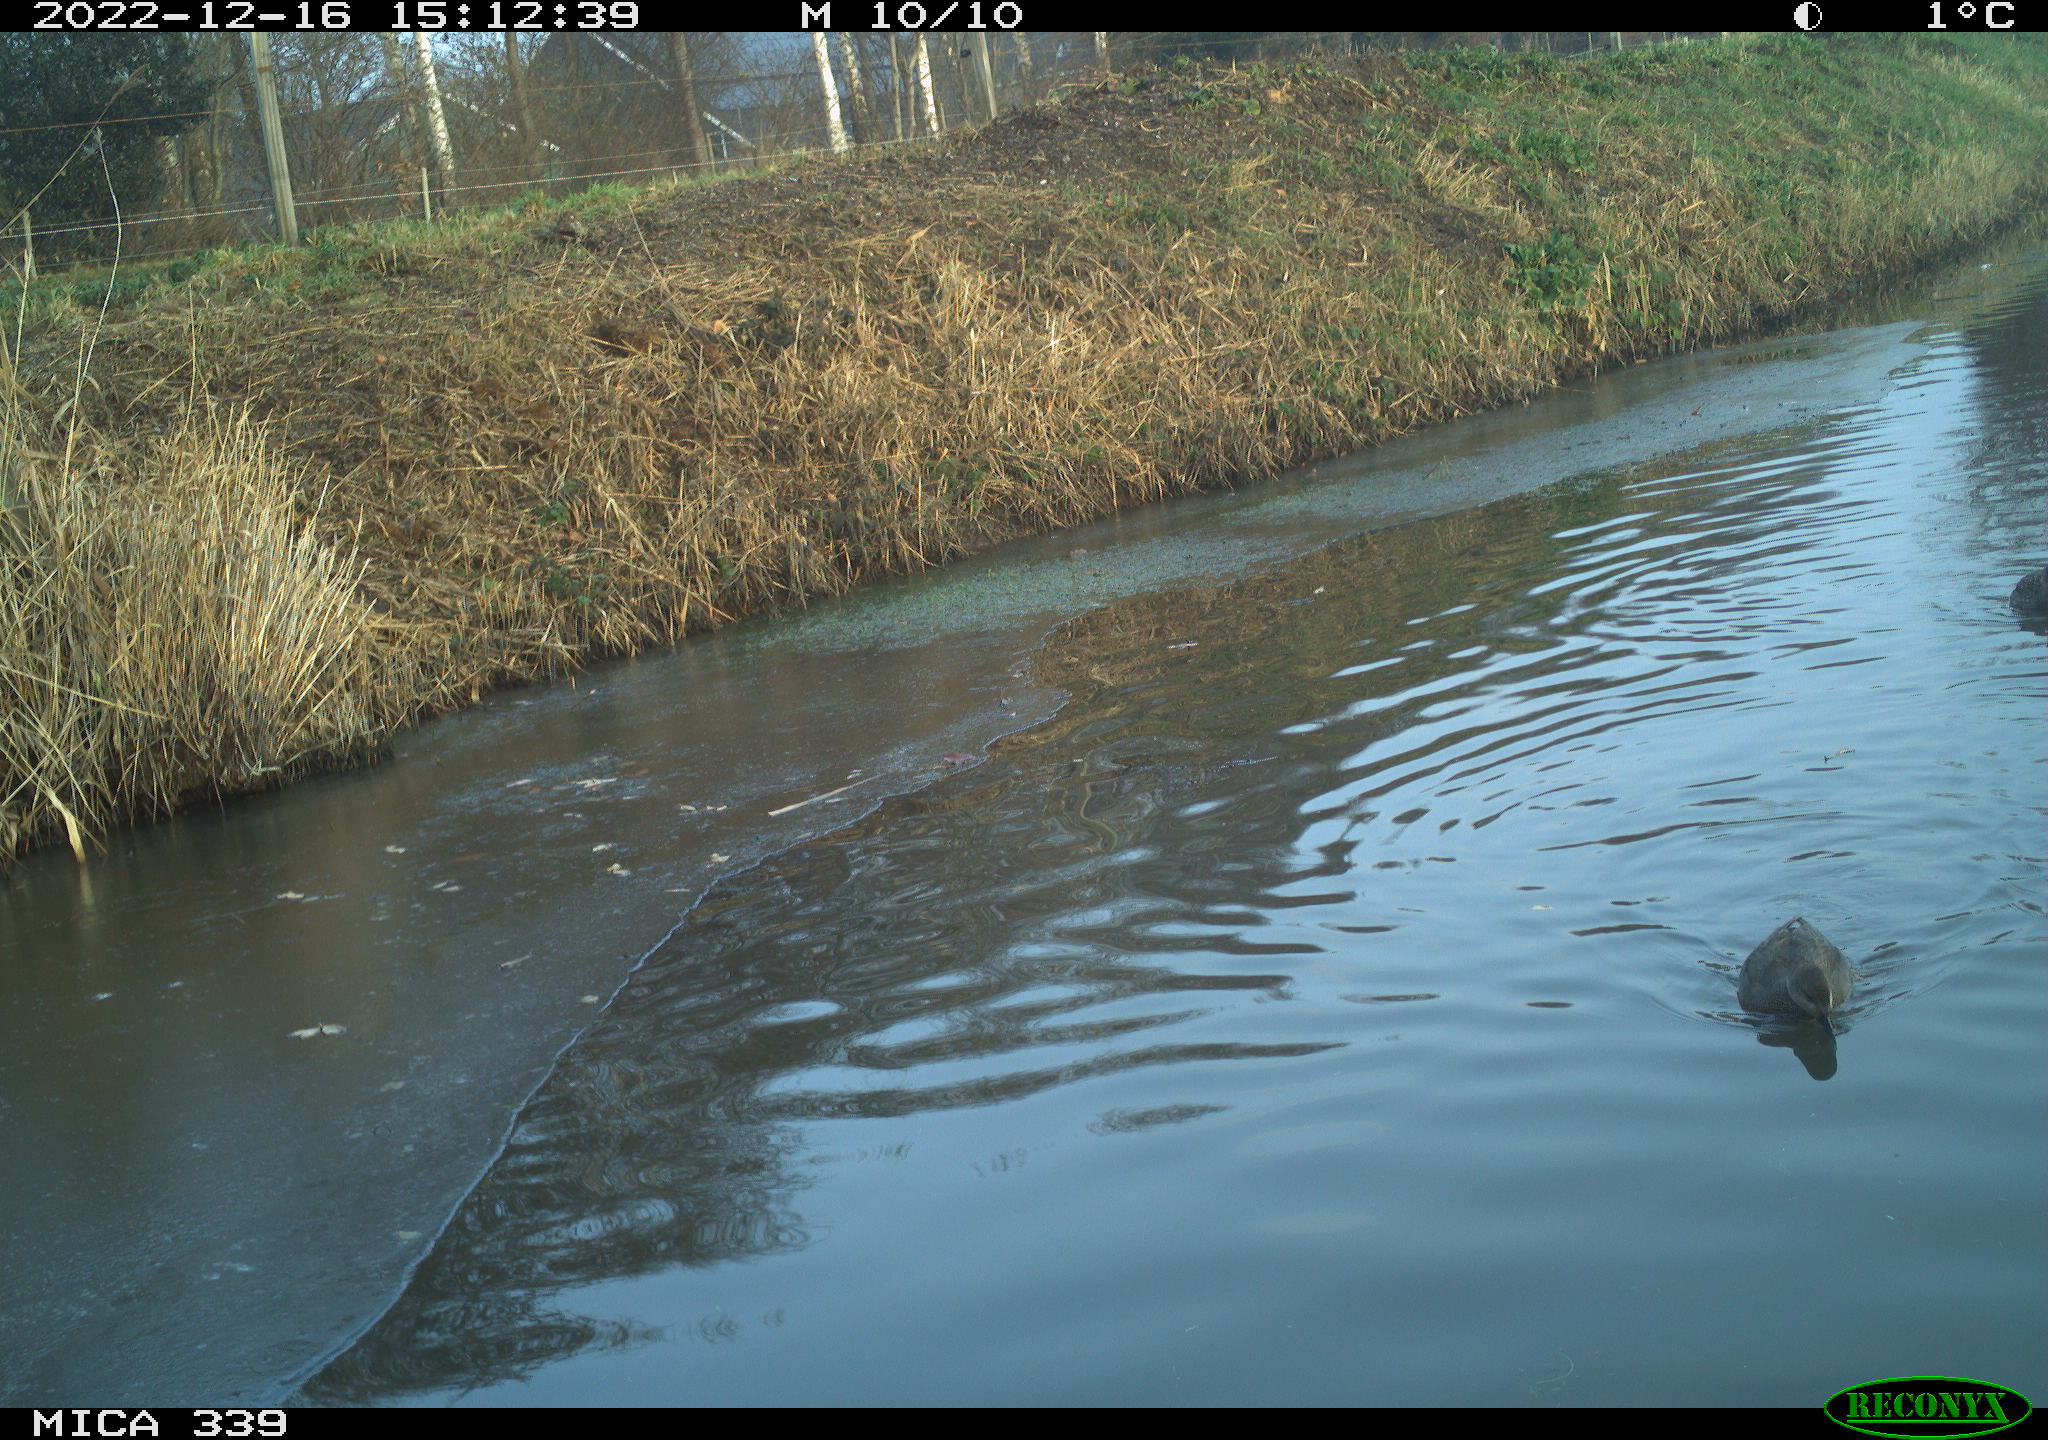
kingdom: Animalia
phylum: Chordata
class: Aves
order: Anseriformes
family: Anatidae
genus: Anas
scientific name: Anas
